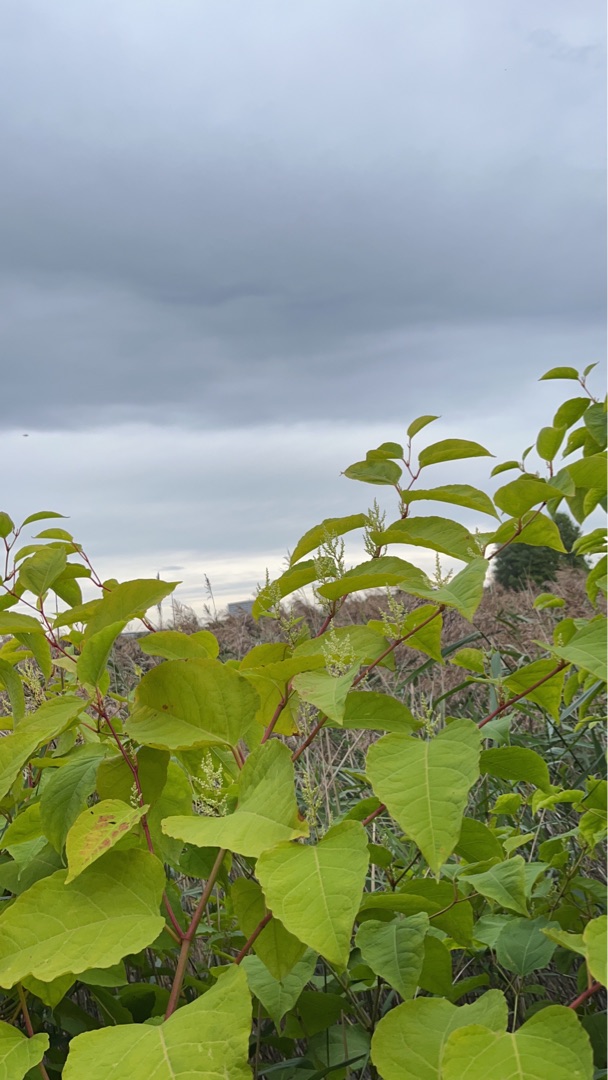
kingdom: Plantae
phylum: Tracheophyta
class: Magnoliopsida
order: Caryophyllales
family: Polygonaceae
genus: Reynoutria
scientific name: Reynoutria japonica
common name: Japan-pileurt
